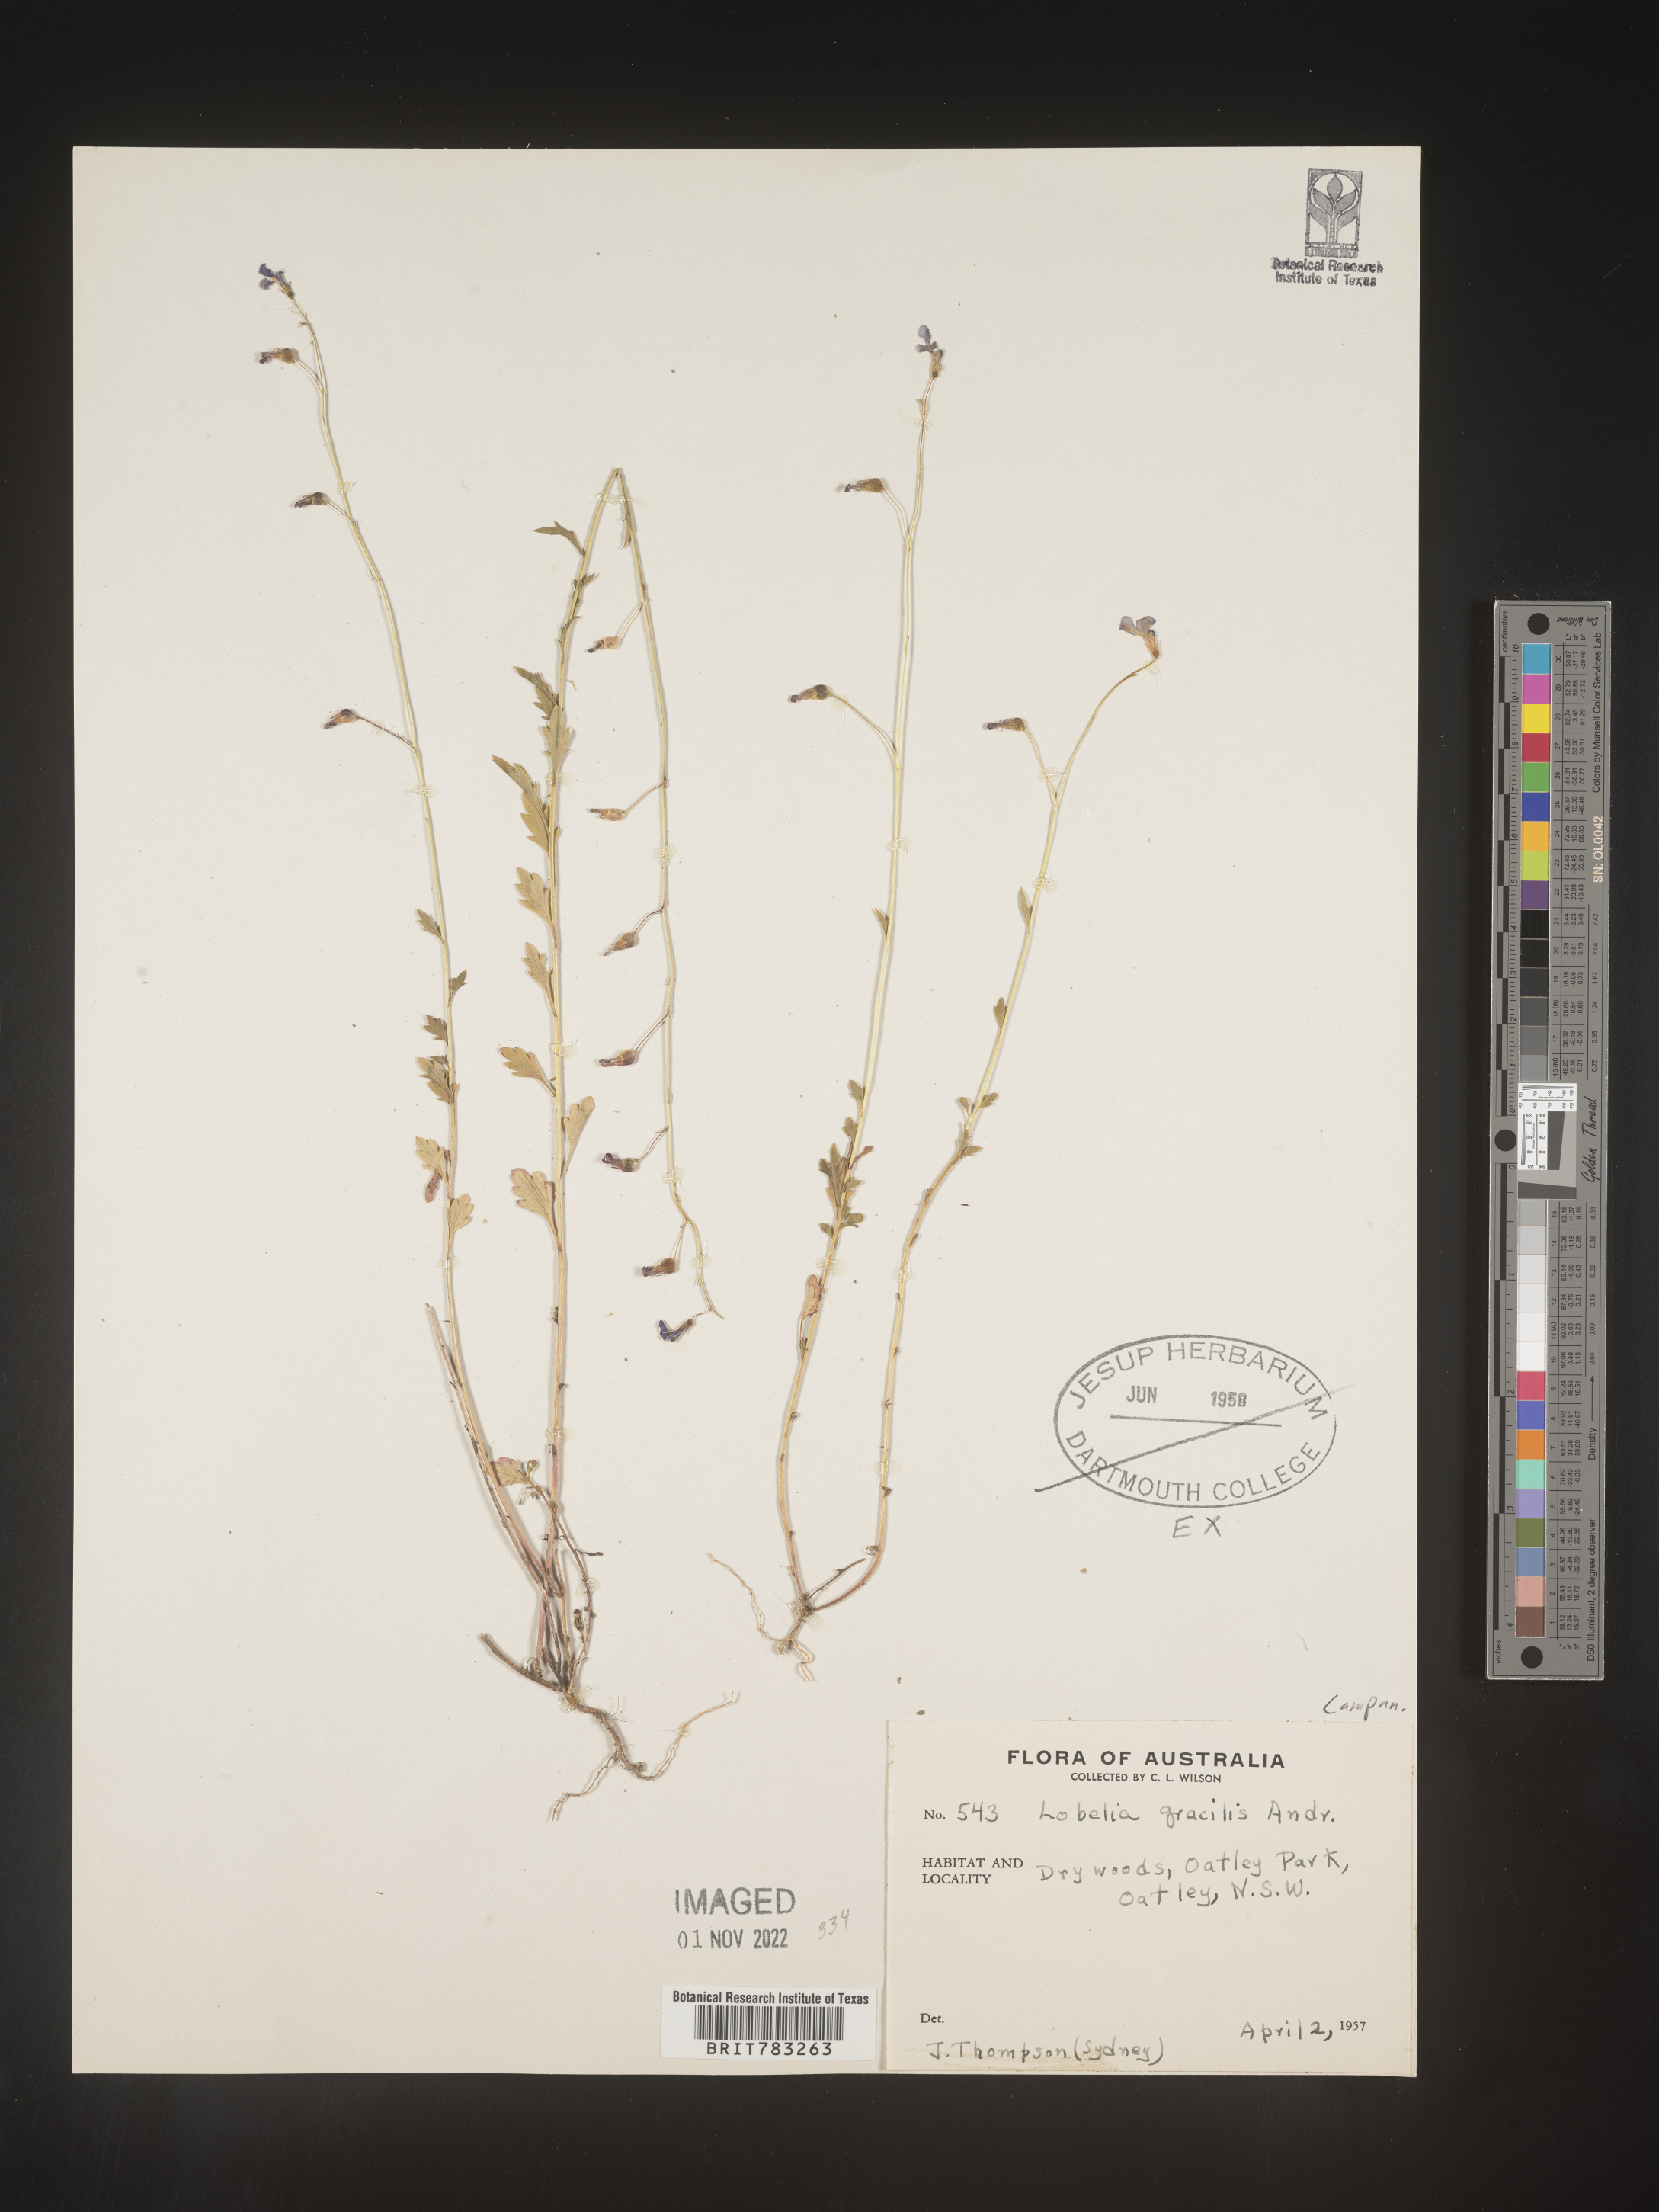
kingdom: Plantae
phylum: Tracheophyta
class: Magnoliopsida
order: Asterales
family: Campanulaceae
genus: Lobelia
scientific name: Lobelia
